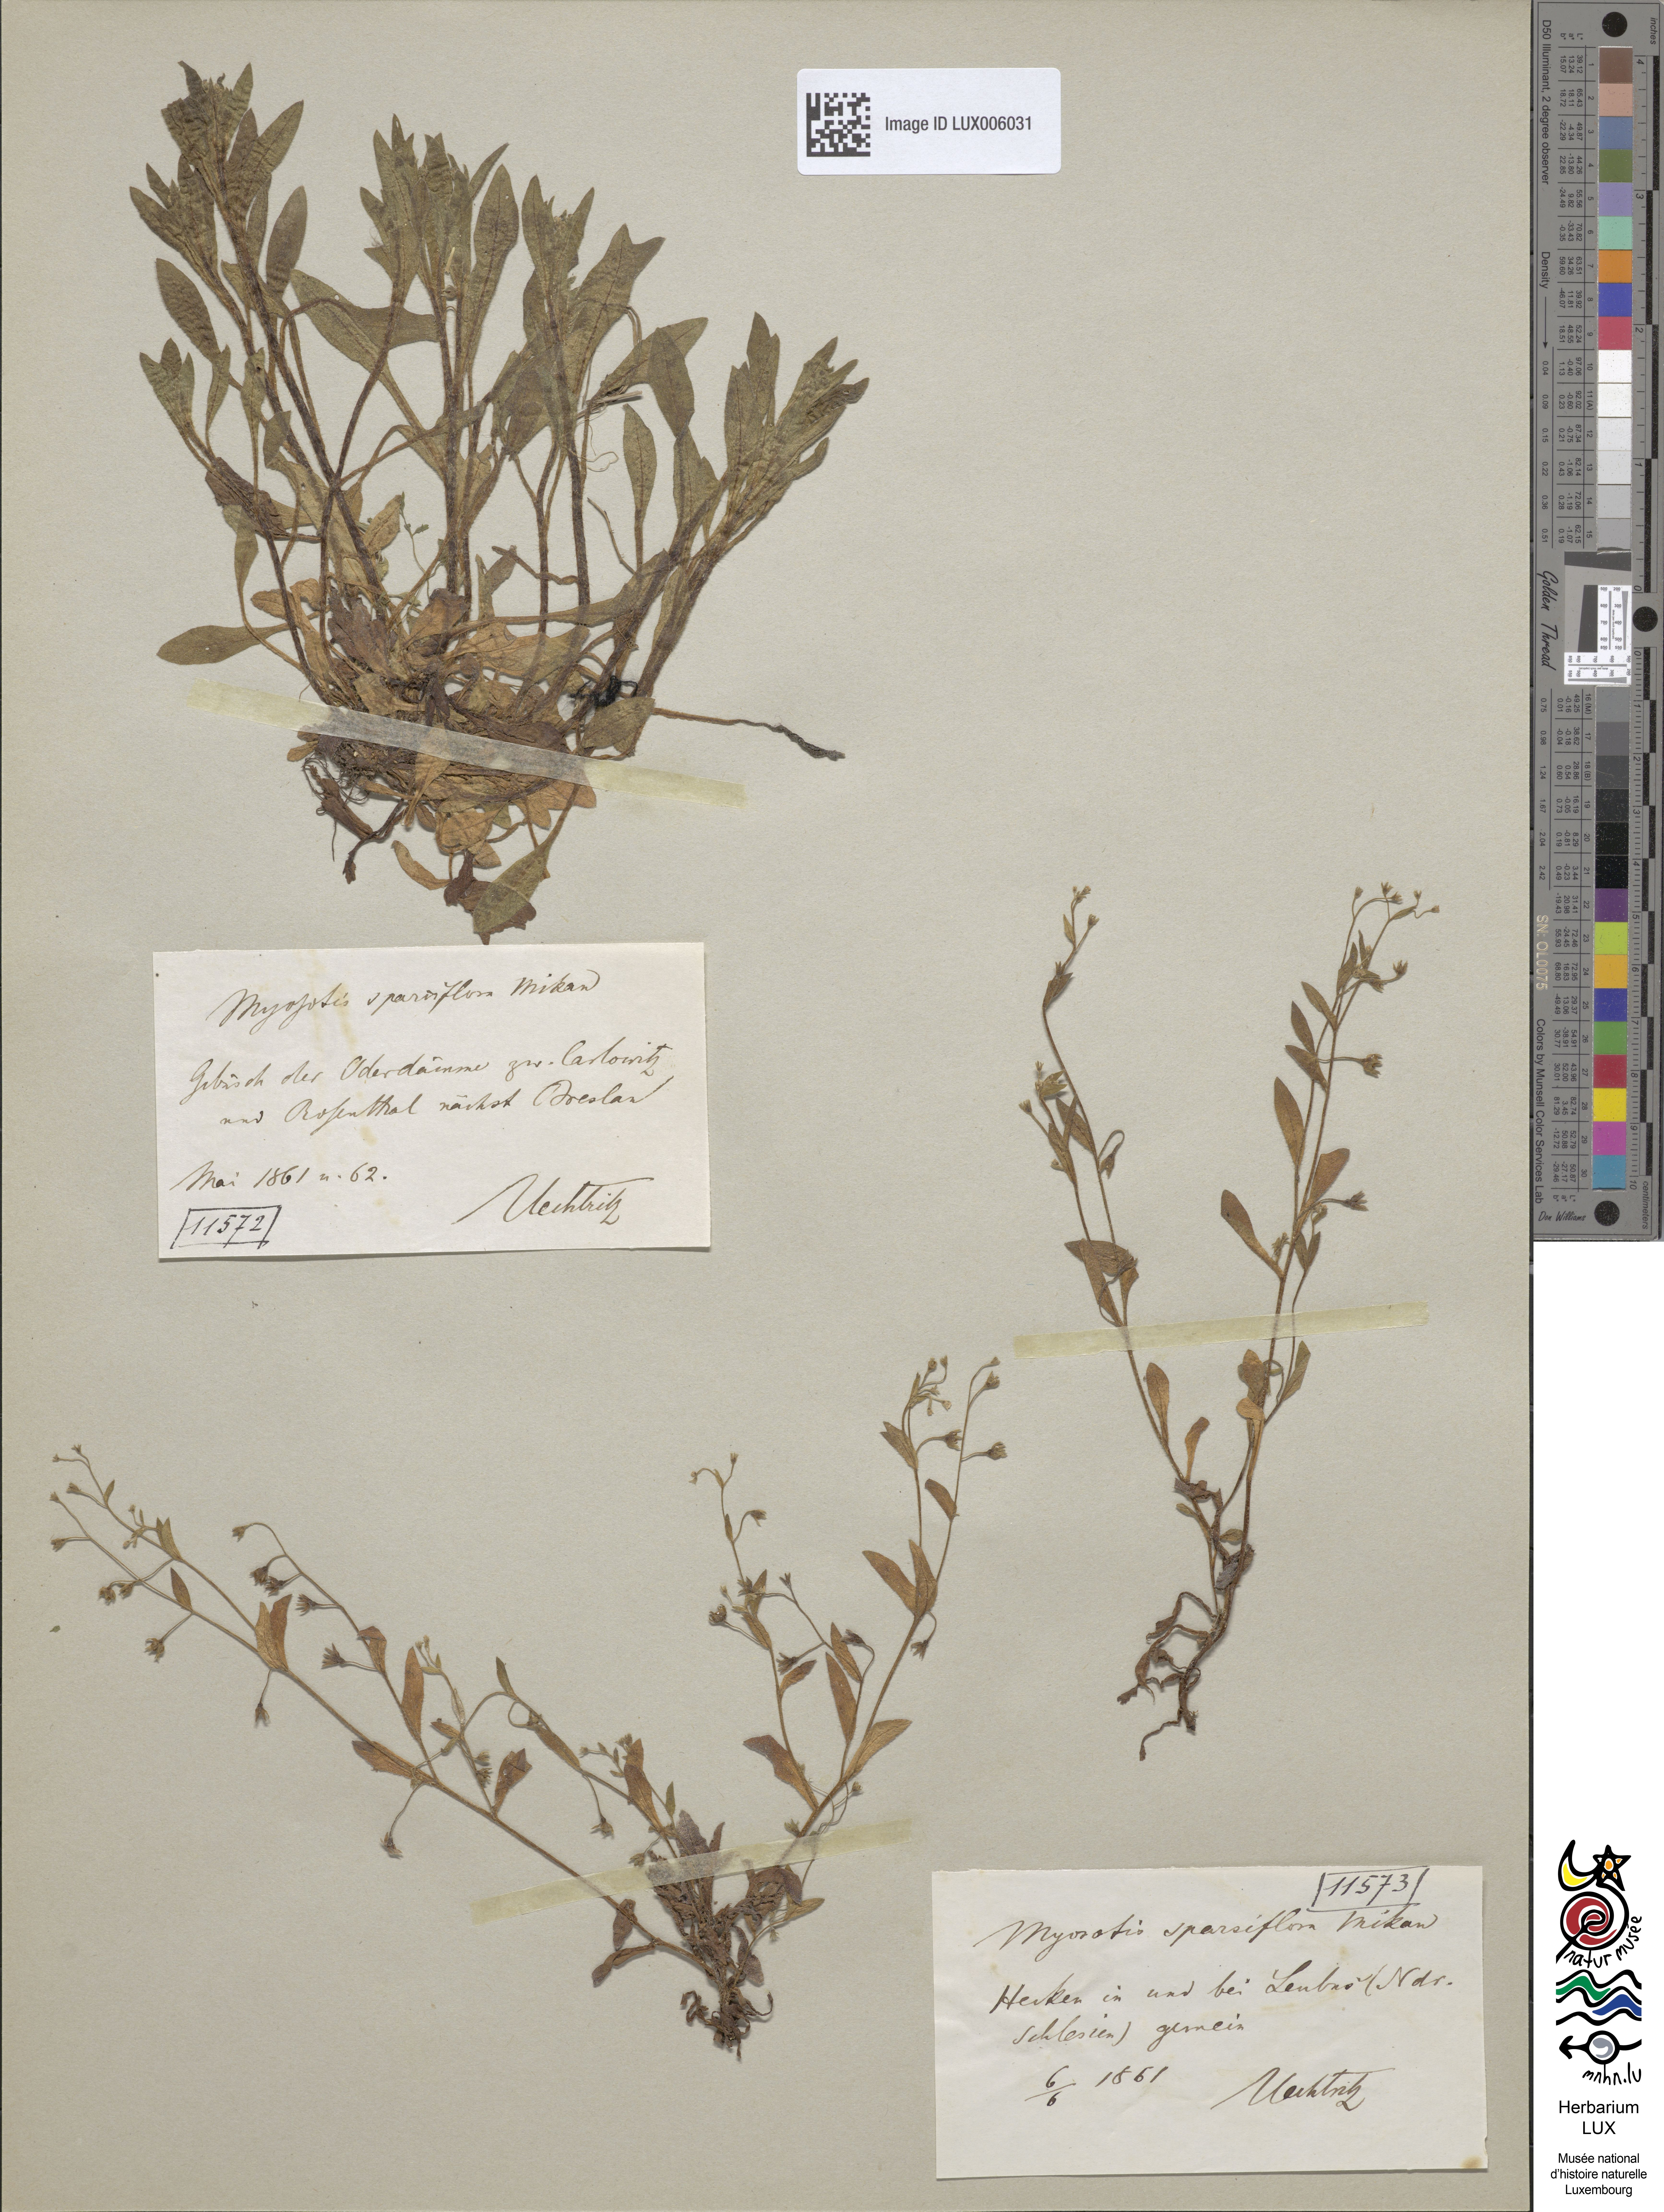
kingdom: Plantae
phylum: Tracheophyta
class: Magnoliopsida
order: Boraginales
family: Boraginaceae
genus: Myosotis
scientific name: Myosotis sparsiflora
